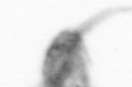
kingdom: Animalia
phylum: Arthropoda
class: Copepoda
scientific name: Copepoda
